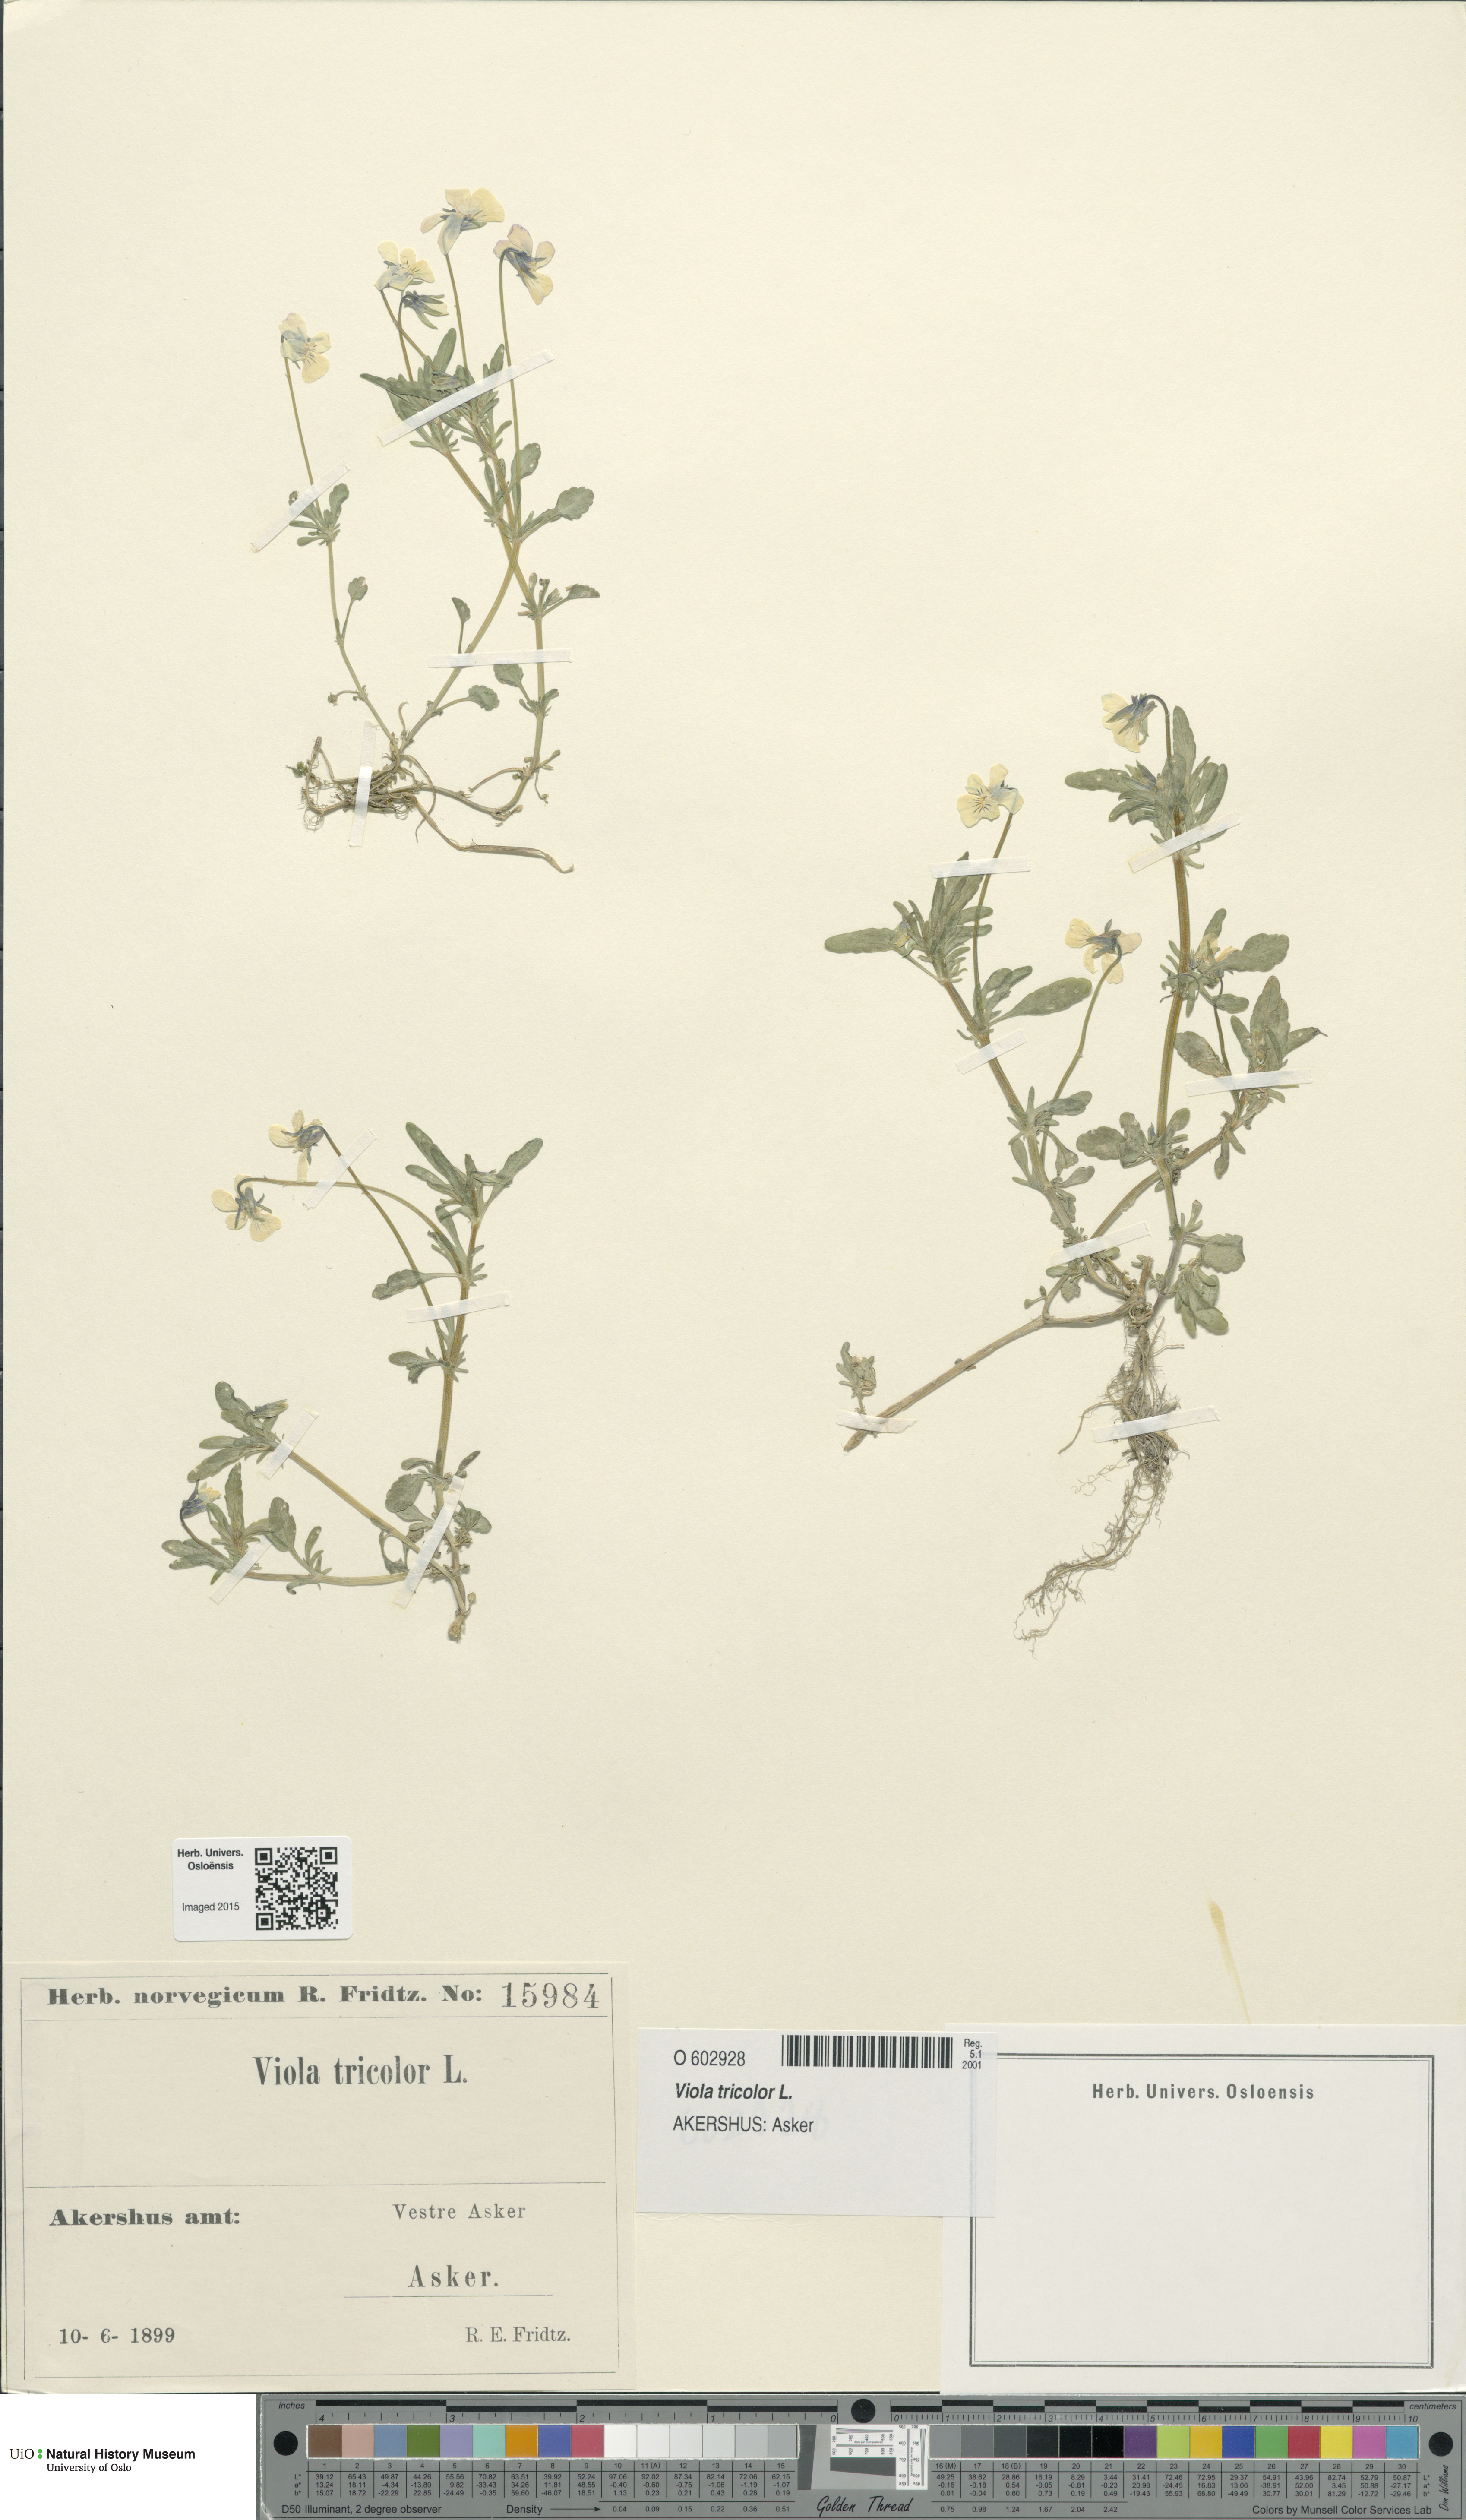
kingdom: Plantae
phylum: Tracheophyta
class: Magnoliopsida
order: Malpighiales
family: Violaceae
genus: Viola
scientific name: Viola tricolor
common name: Pansy
